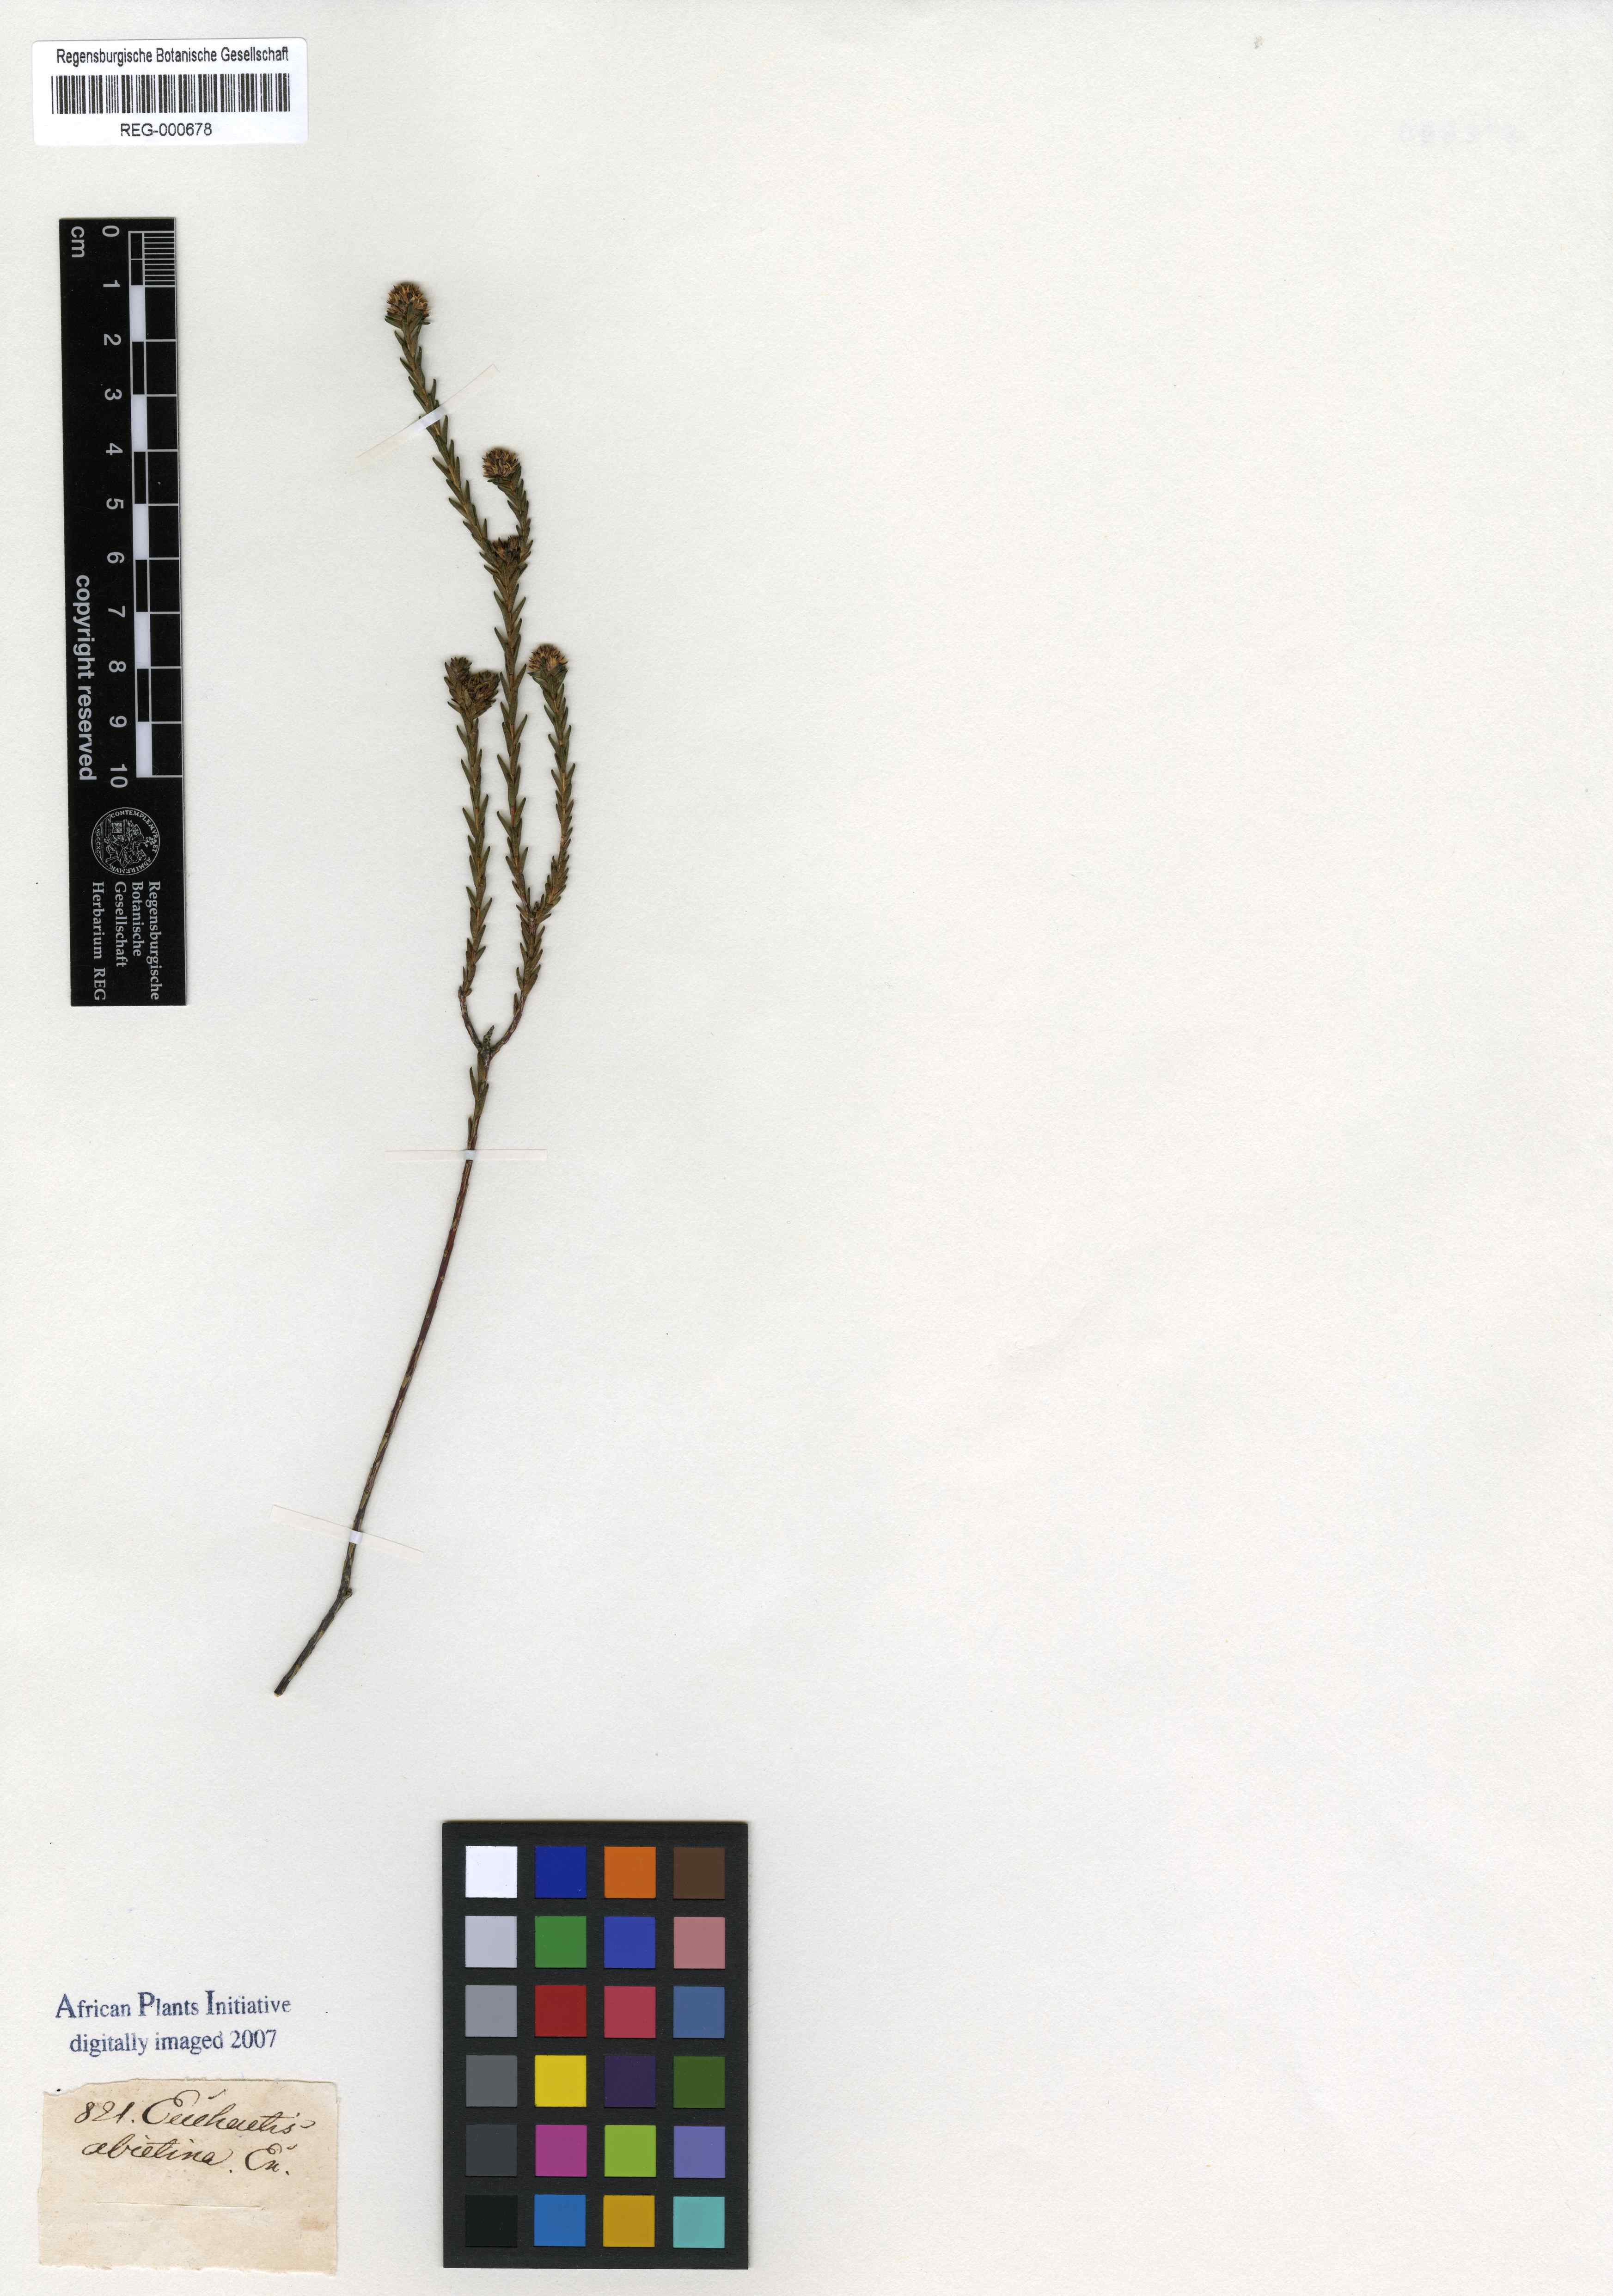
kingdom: Plantae
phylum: Tracheophyta
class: Magnoliopsida
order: Sapindales
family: Rutaceae
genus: Euchaetis
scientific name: Euchaetis glomerata
